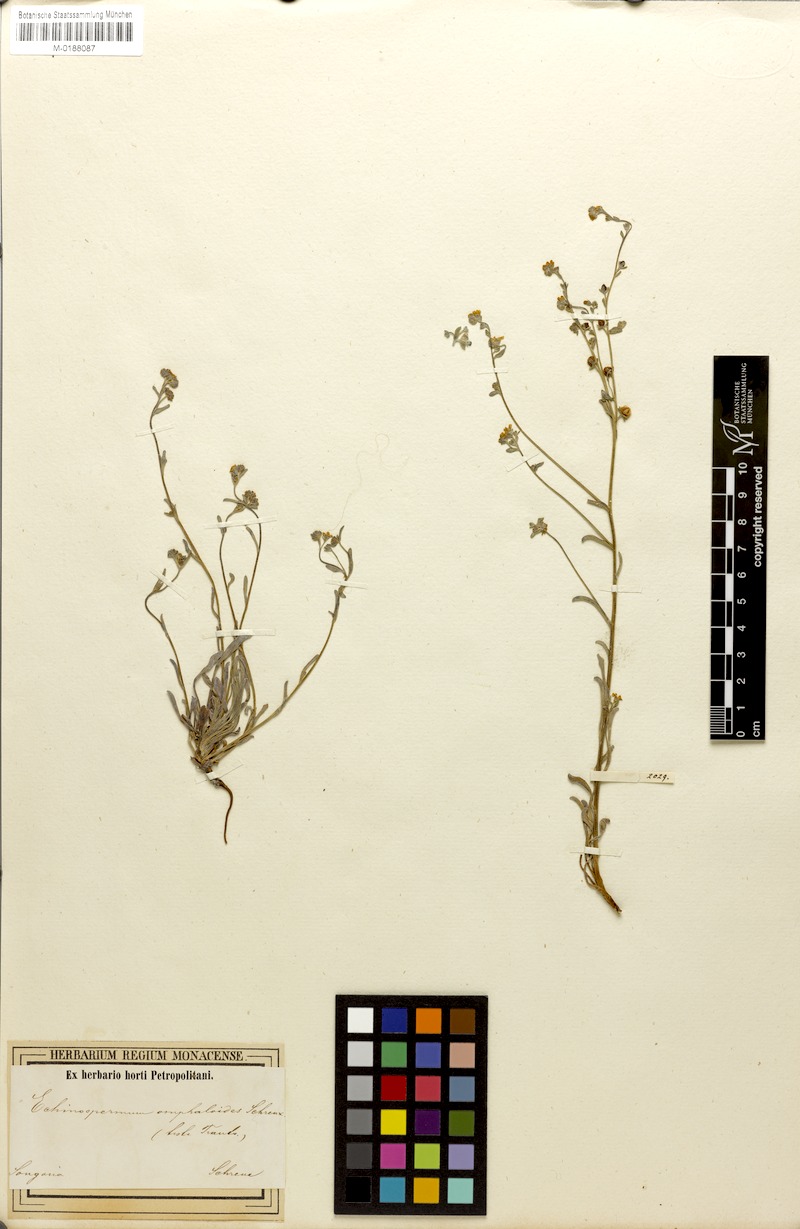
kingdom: Plantae
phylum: Tracheophyta
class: Magnoliopsida
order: Boraginales
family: Boraginaceae
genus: Lepechiniella
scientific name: Lepechiniella omphaloides
